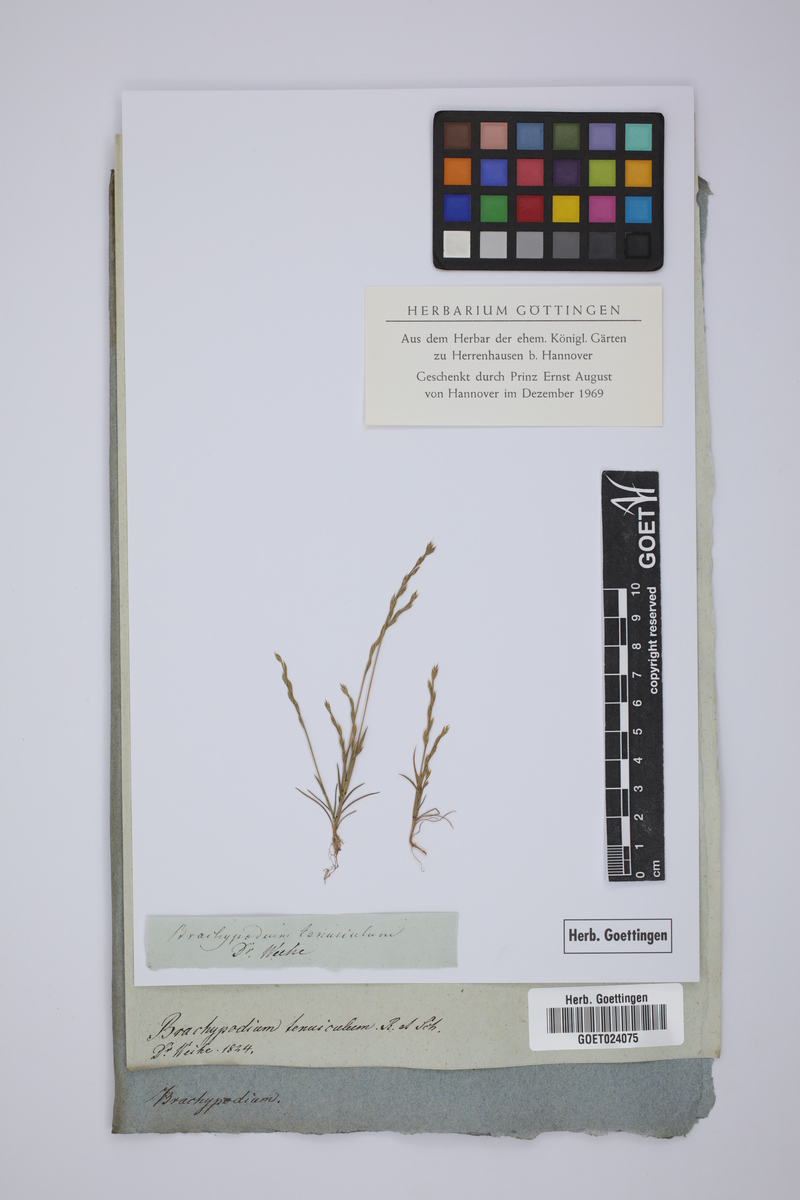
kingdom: Plantae
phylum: Tracheophyta
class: Liliopsida
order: Poales
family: Poaceae
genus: Festuca
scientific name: Festuca lachenalii
